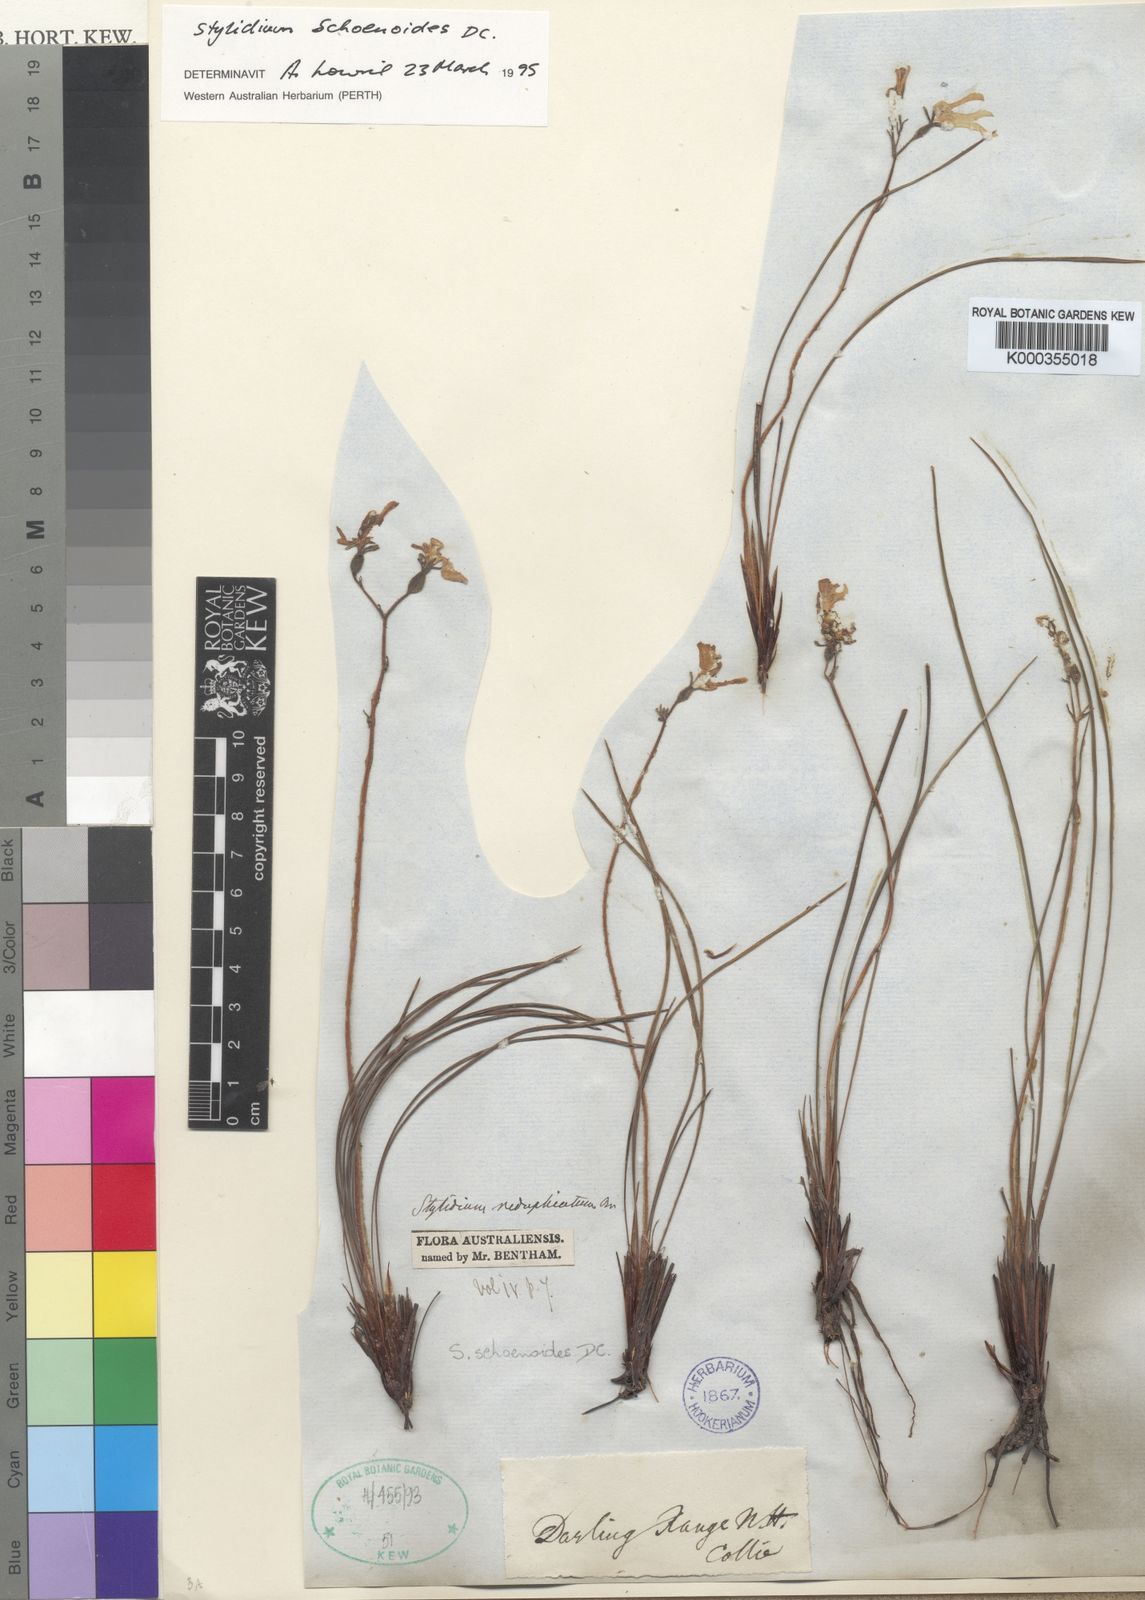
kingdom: Plantae
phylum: Tracheophyta
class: Magnoliopsida
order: Asterales
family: Stylidiaceae
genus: Stylidium
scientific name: Stylidium schoenoides
